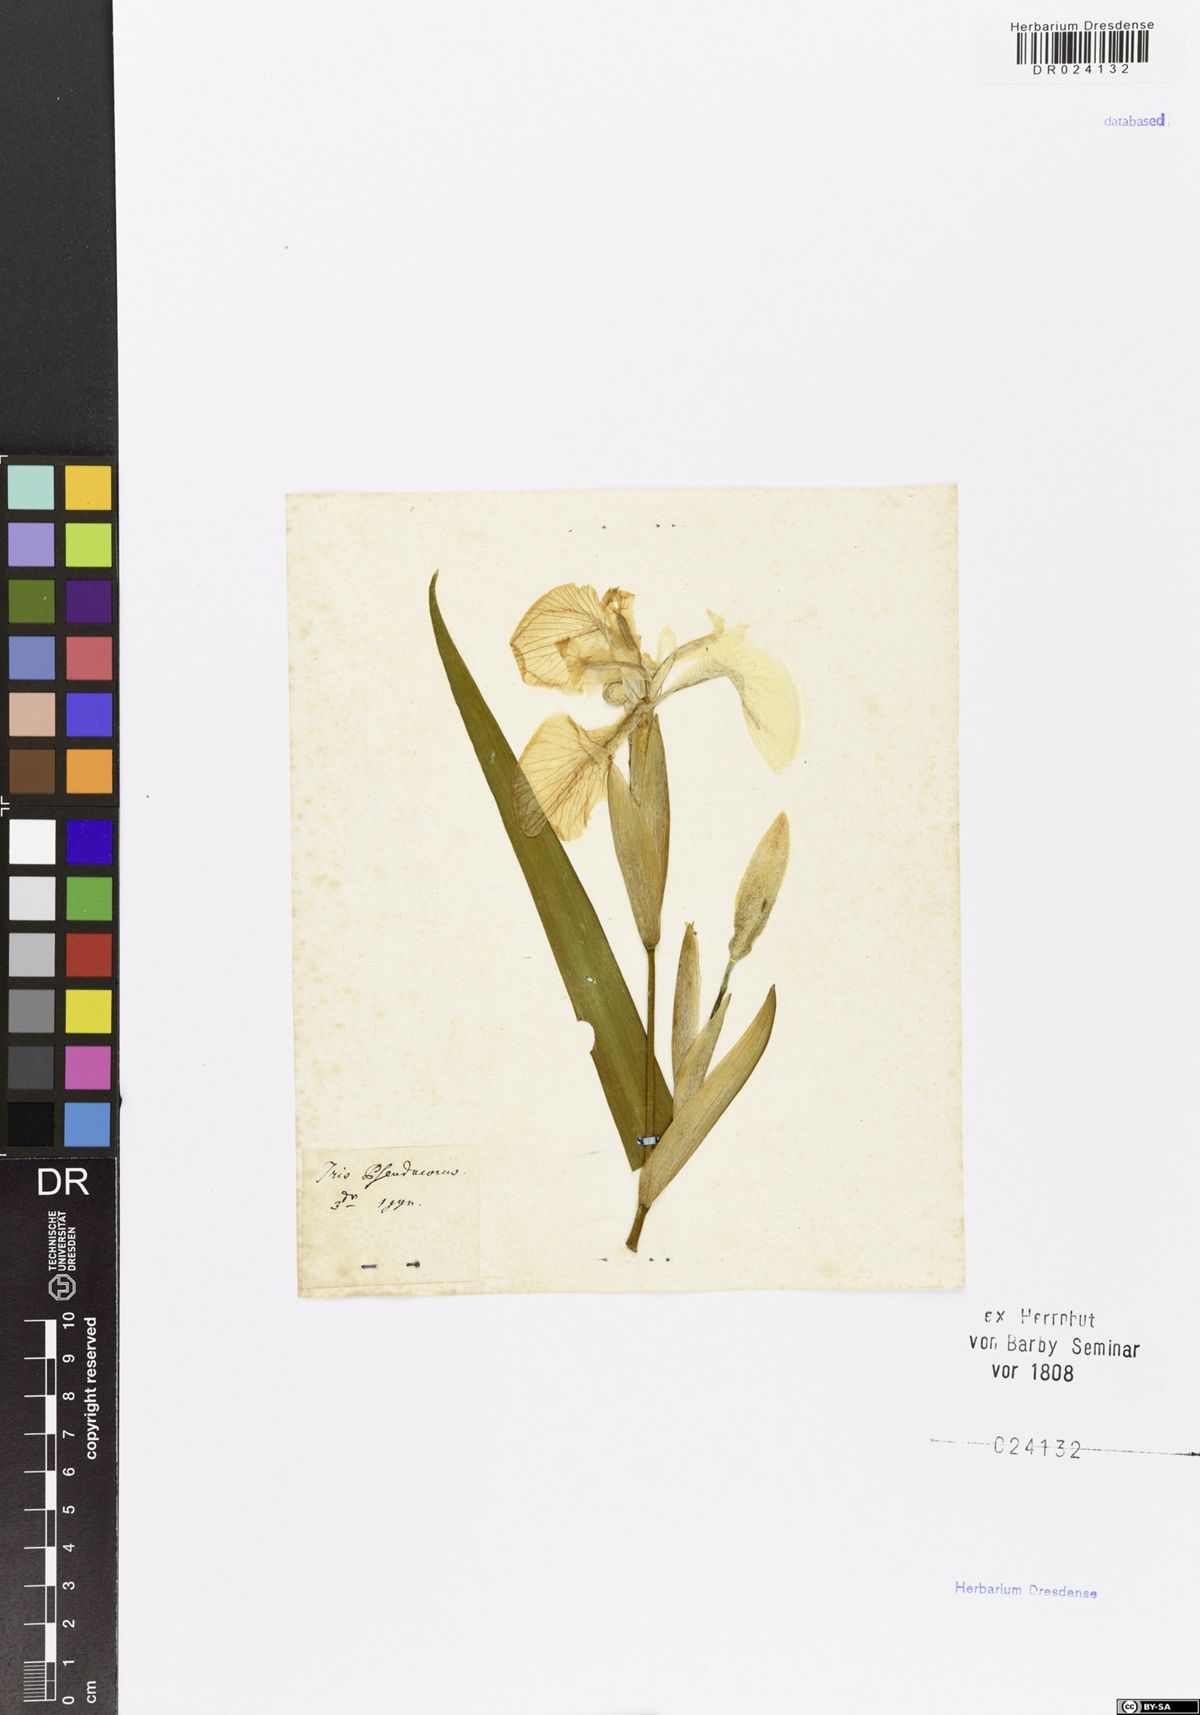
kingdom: Plantae
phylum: Tracheophyta
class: Liliopsida
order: Asparagales
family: Iridaceae
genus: Iris
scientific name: Iris pseudacorus
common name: Yellow flag
